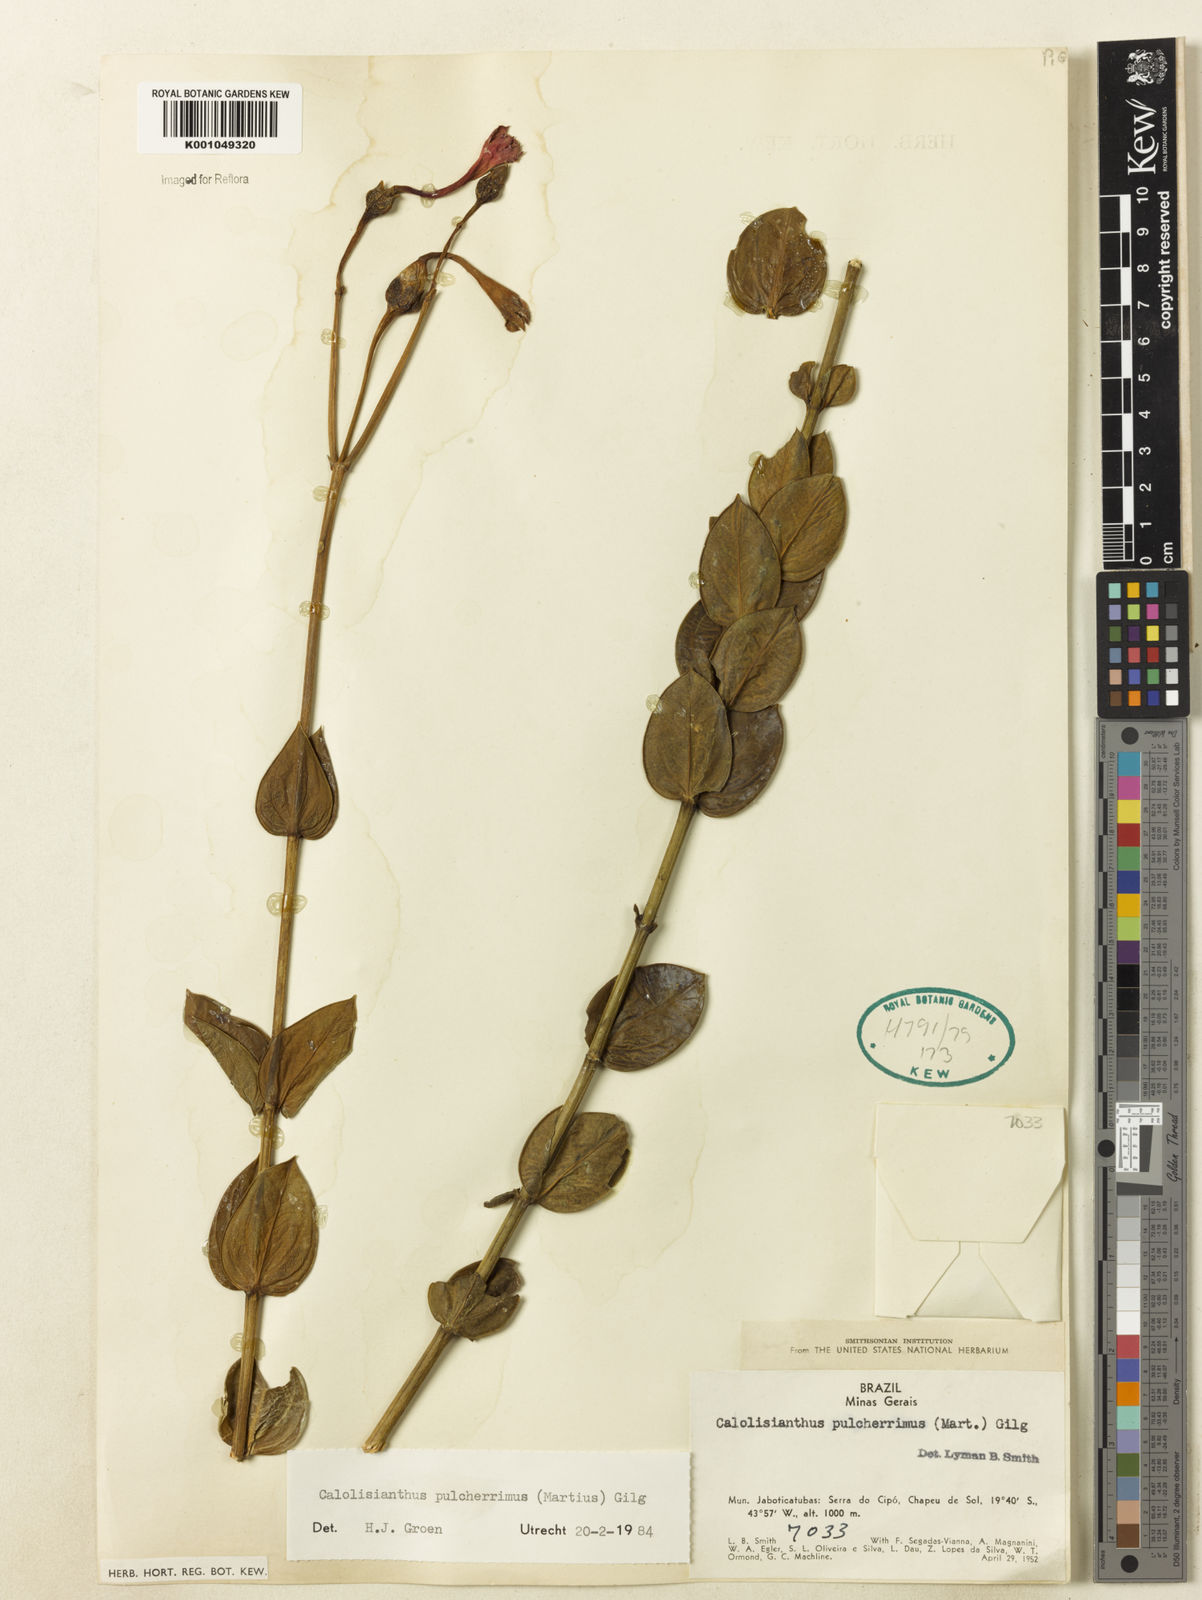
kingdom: Plantae
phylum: Tracheophyta
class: Magnoliopsida
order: Gentianales
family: Gentianaceae
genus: Calolisianthus
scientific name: Calolisianthus pulcherrimus
